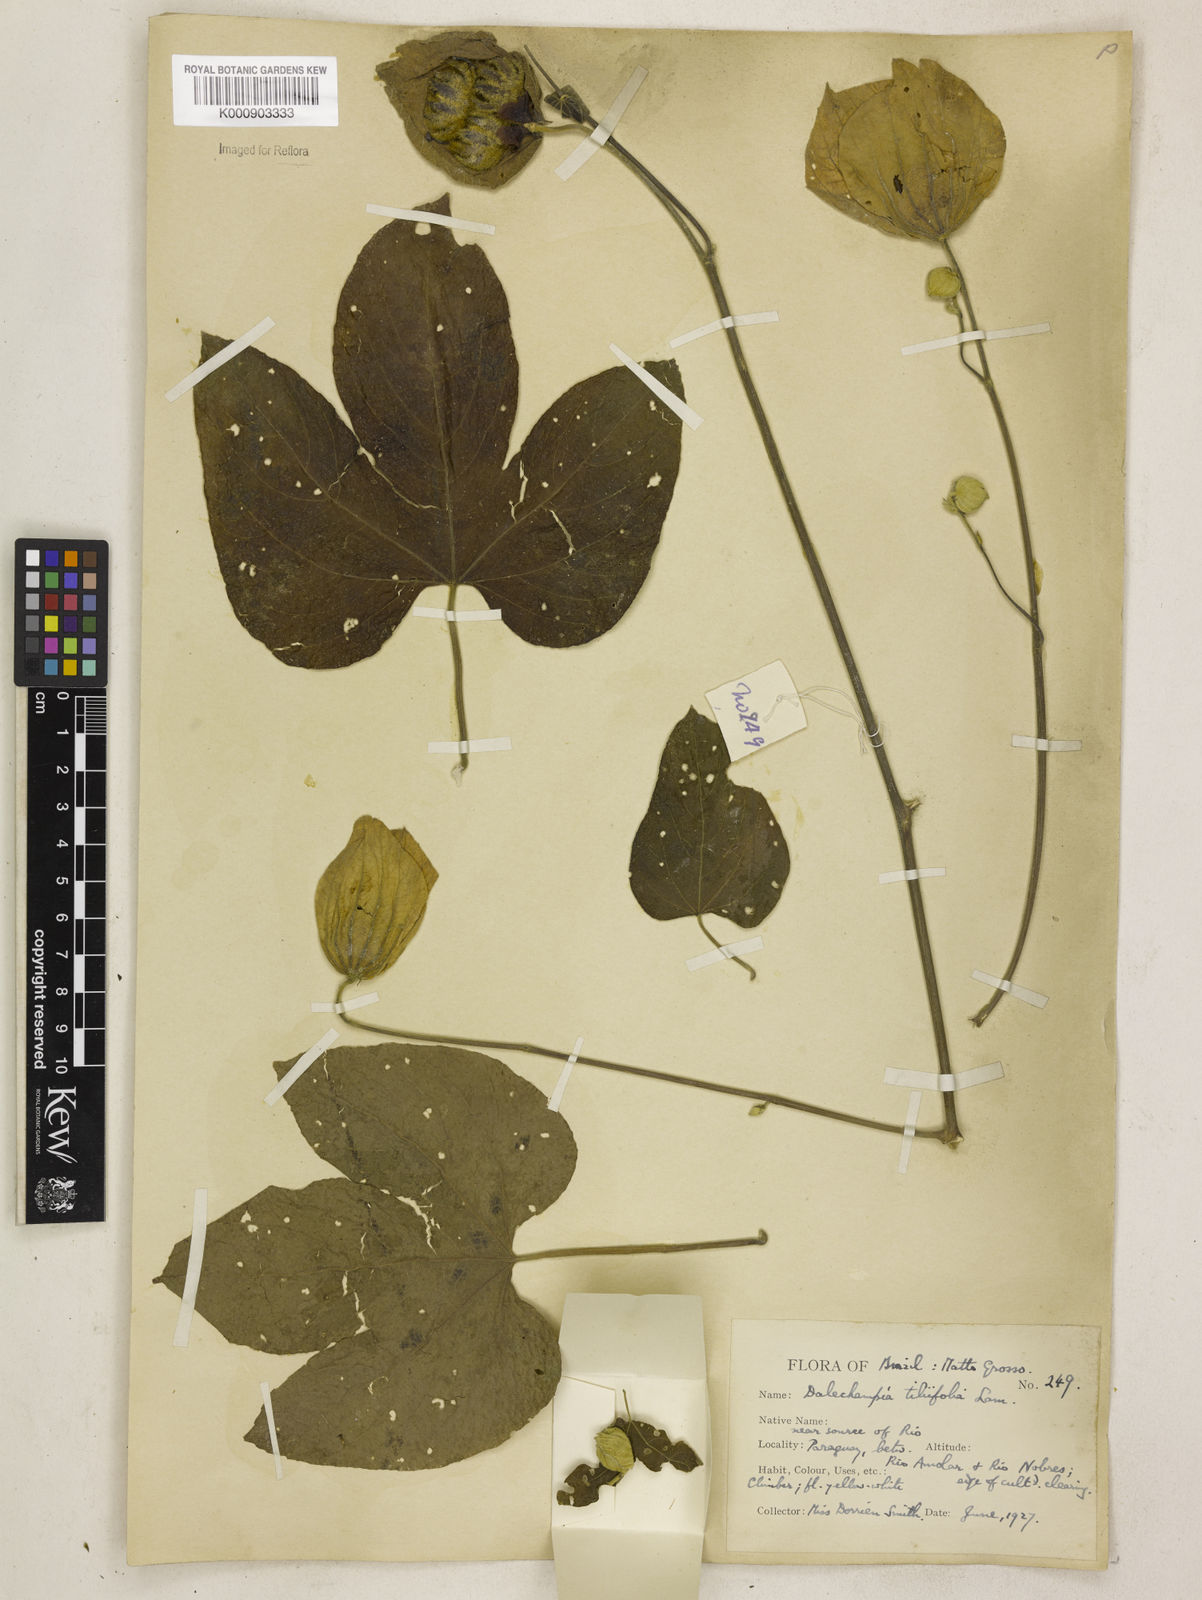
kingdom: Plantae
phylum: Tracheophyta
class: Magnoliopsida
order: Malpighiales
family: Euphorbiaceae
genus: Dalechampia
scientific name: Dalechampia tiliifolia
